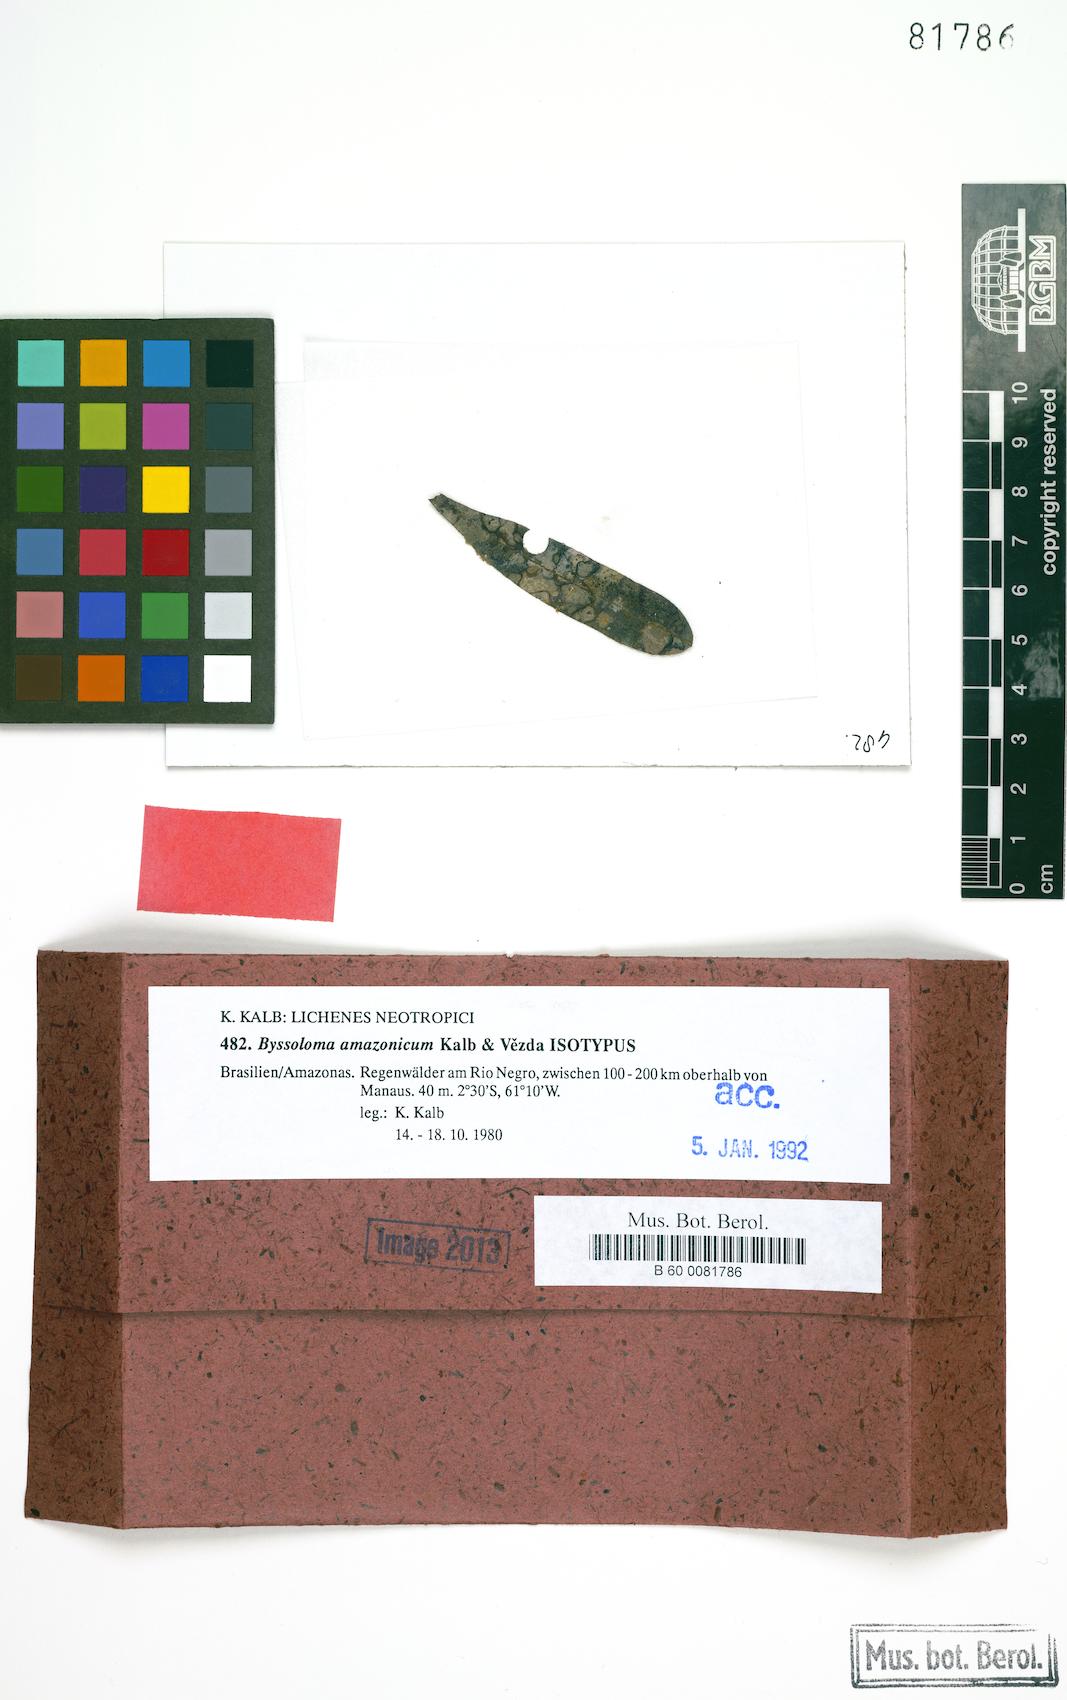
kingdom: Fungi
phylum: Ascomycota
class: Lecanoromycetes
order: Lecanorales
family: Byssolomataceae
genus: Byssoloma
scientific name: Byssoloma amazonicum
